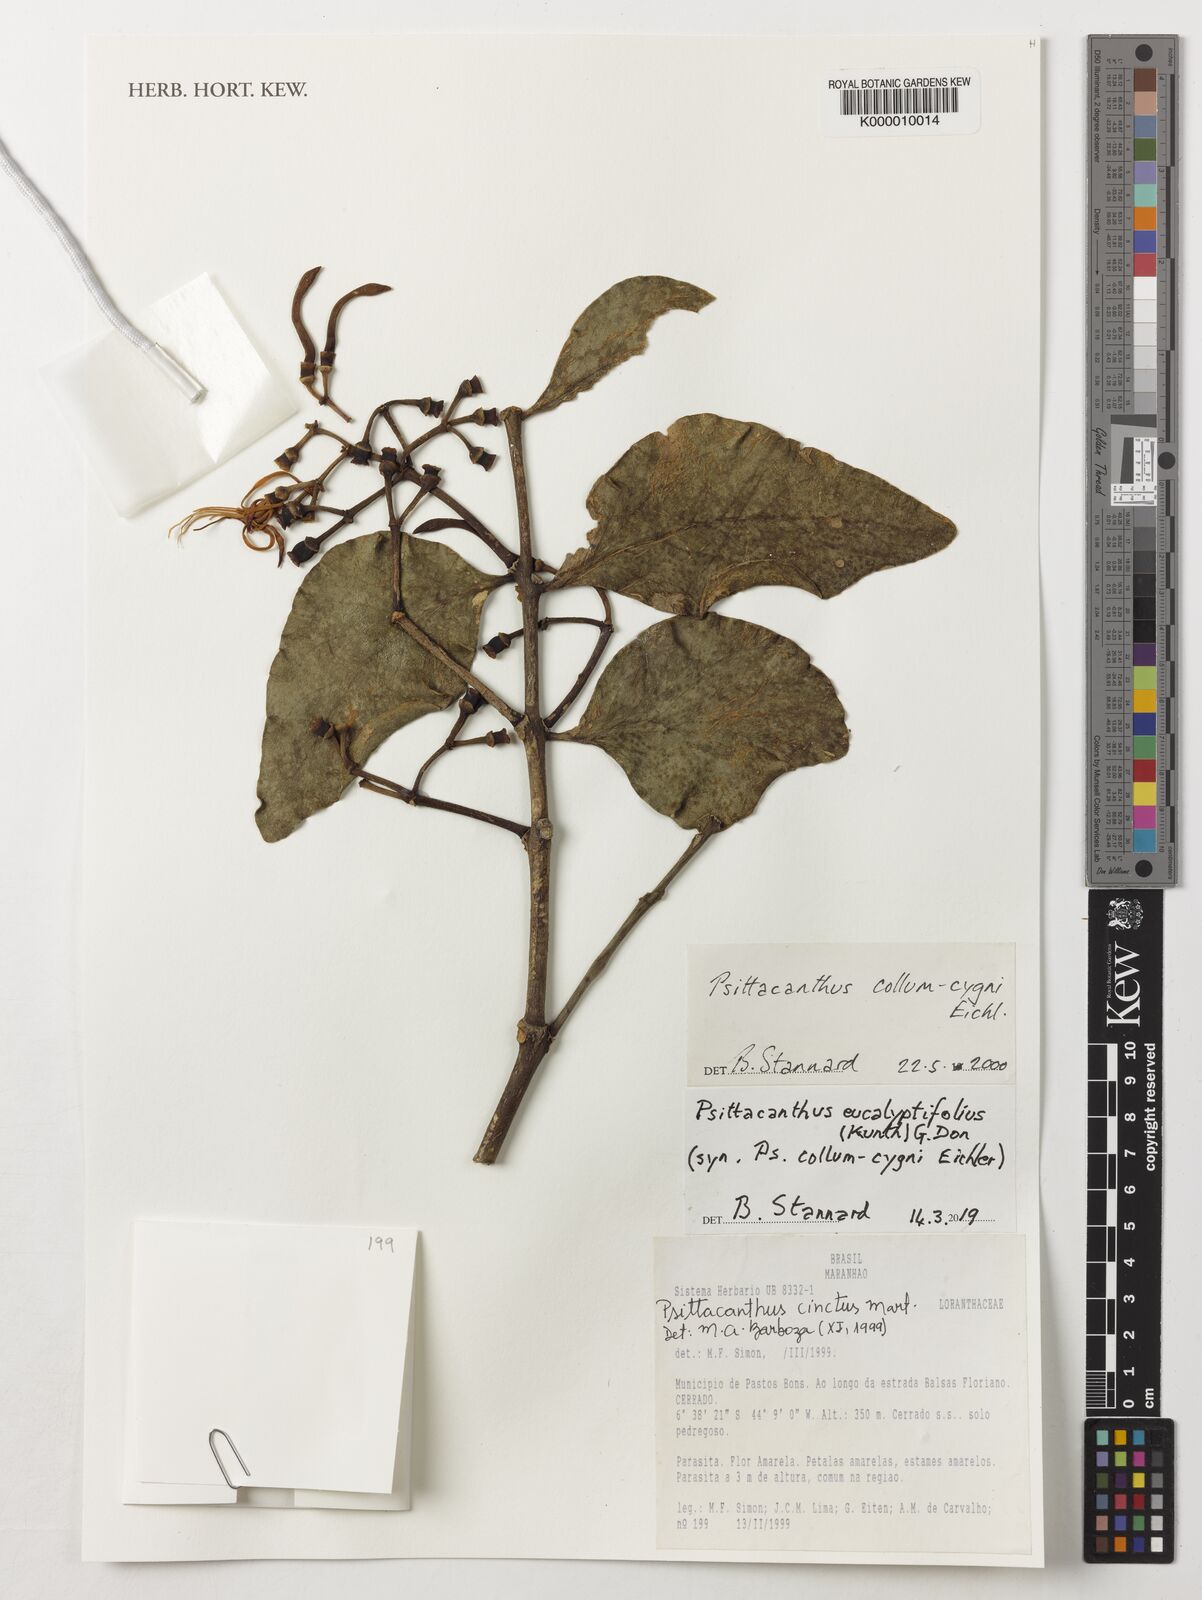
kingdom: Plantae
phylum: Tracheophyta
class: Magnoliopsida
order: Santalales
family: Loranthaceae
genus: Psittacanthus
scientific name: Psittacanthus eucalyptifolius
